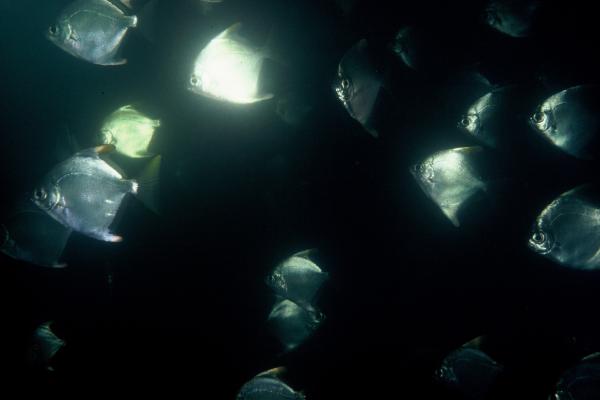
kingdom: Animalia
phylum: Chordata
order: Perciformes
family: Monodactylidae
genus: Monodactylus
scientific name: Monodactylus falciformis
